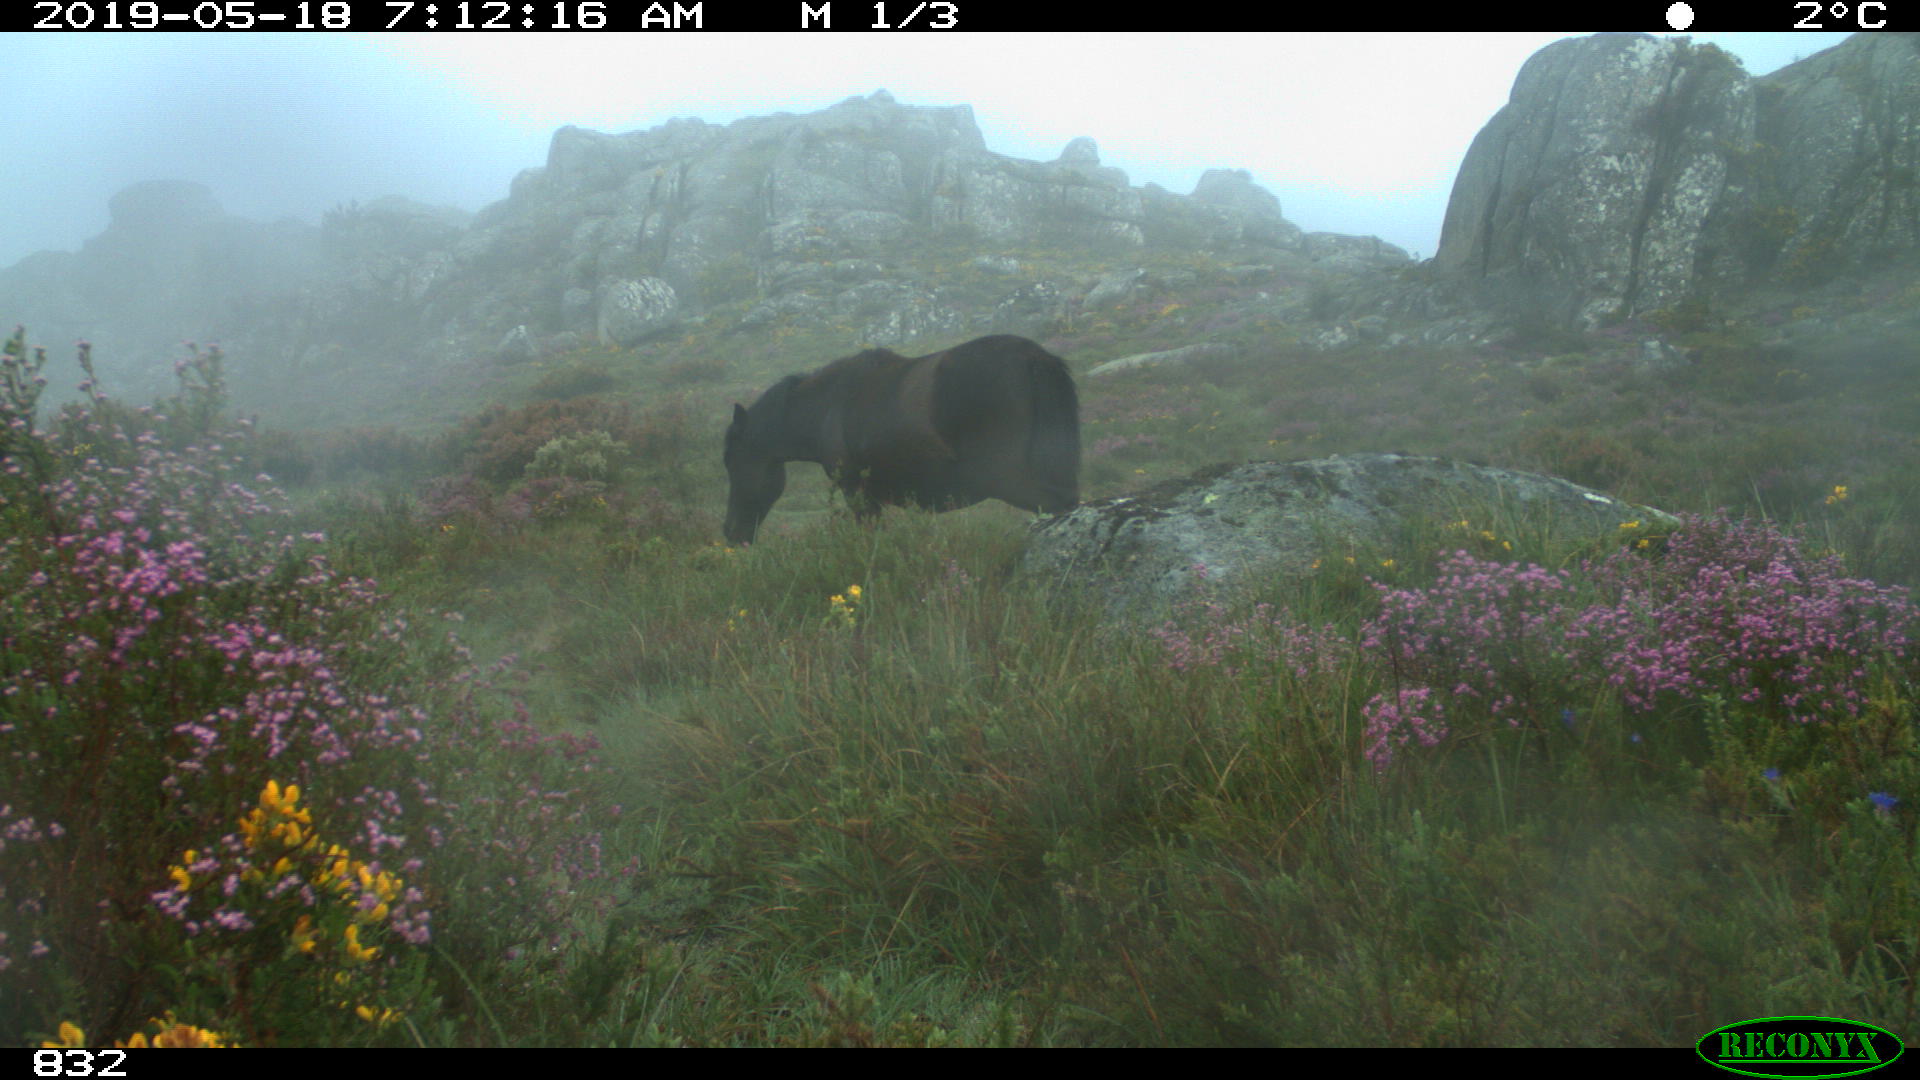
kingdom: Animalia
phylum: Chordata
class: Mammalia
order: Perissodactyla
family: Equidae
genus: Equus
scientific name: Equus caballus
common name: Horse
